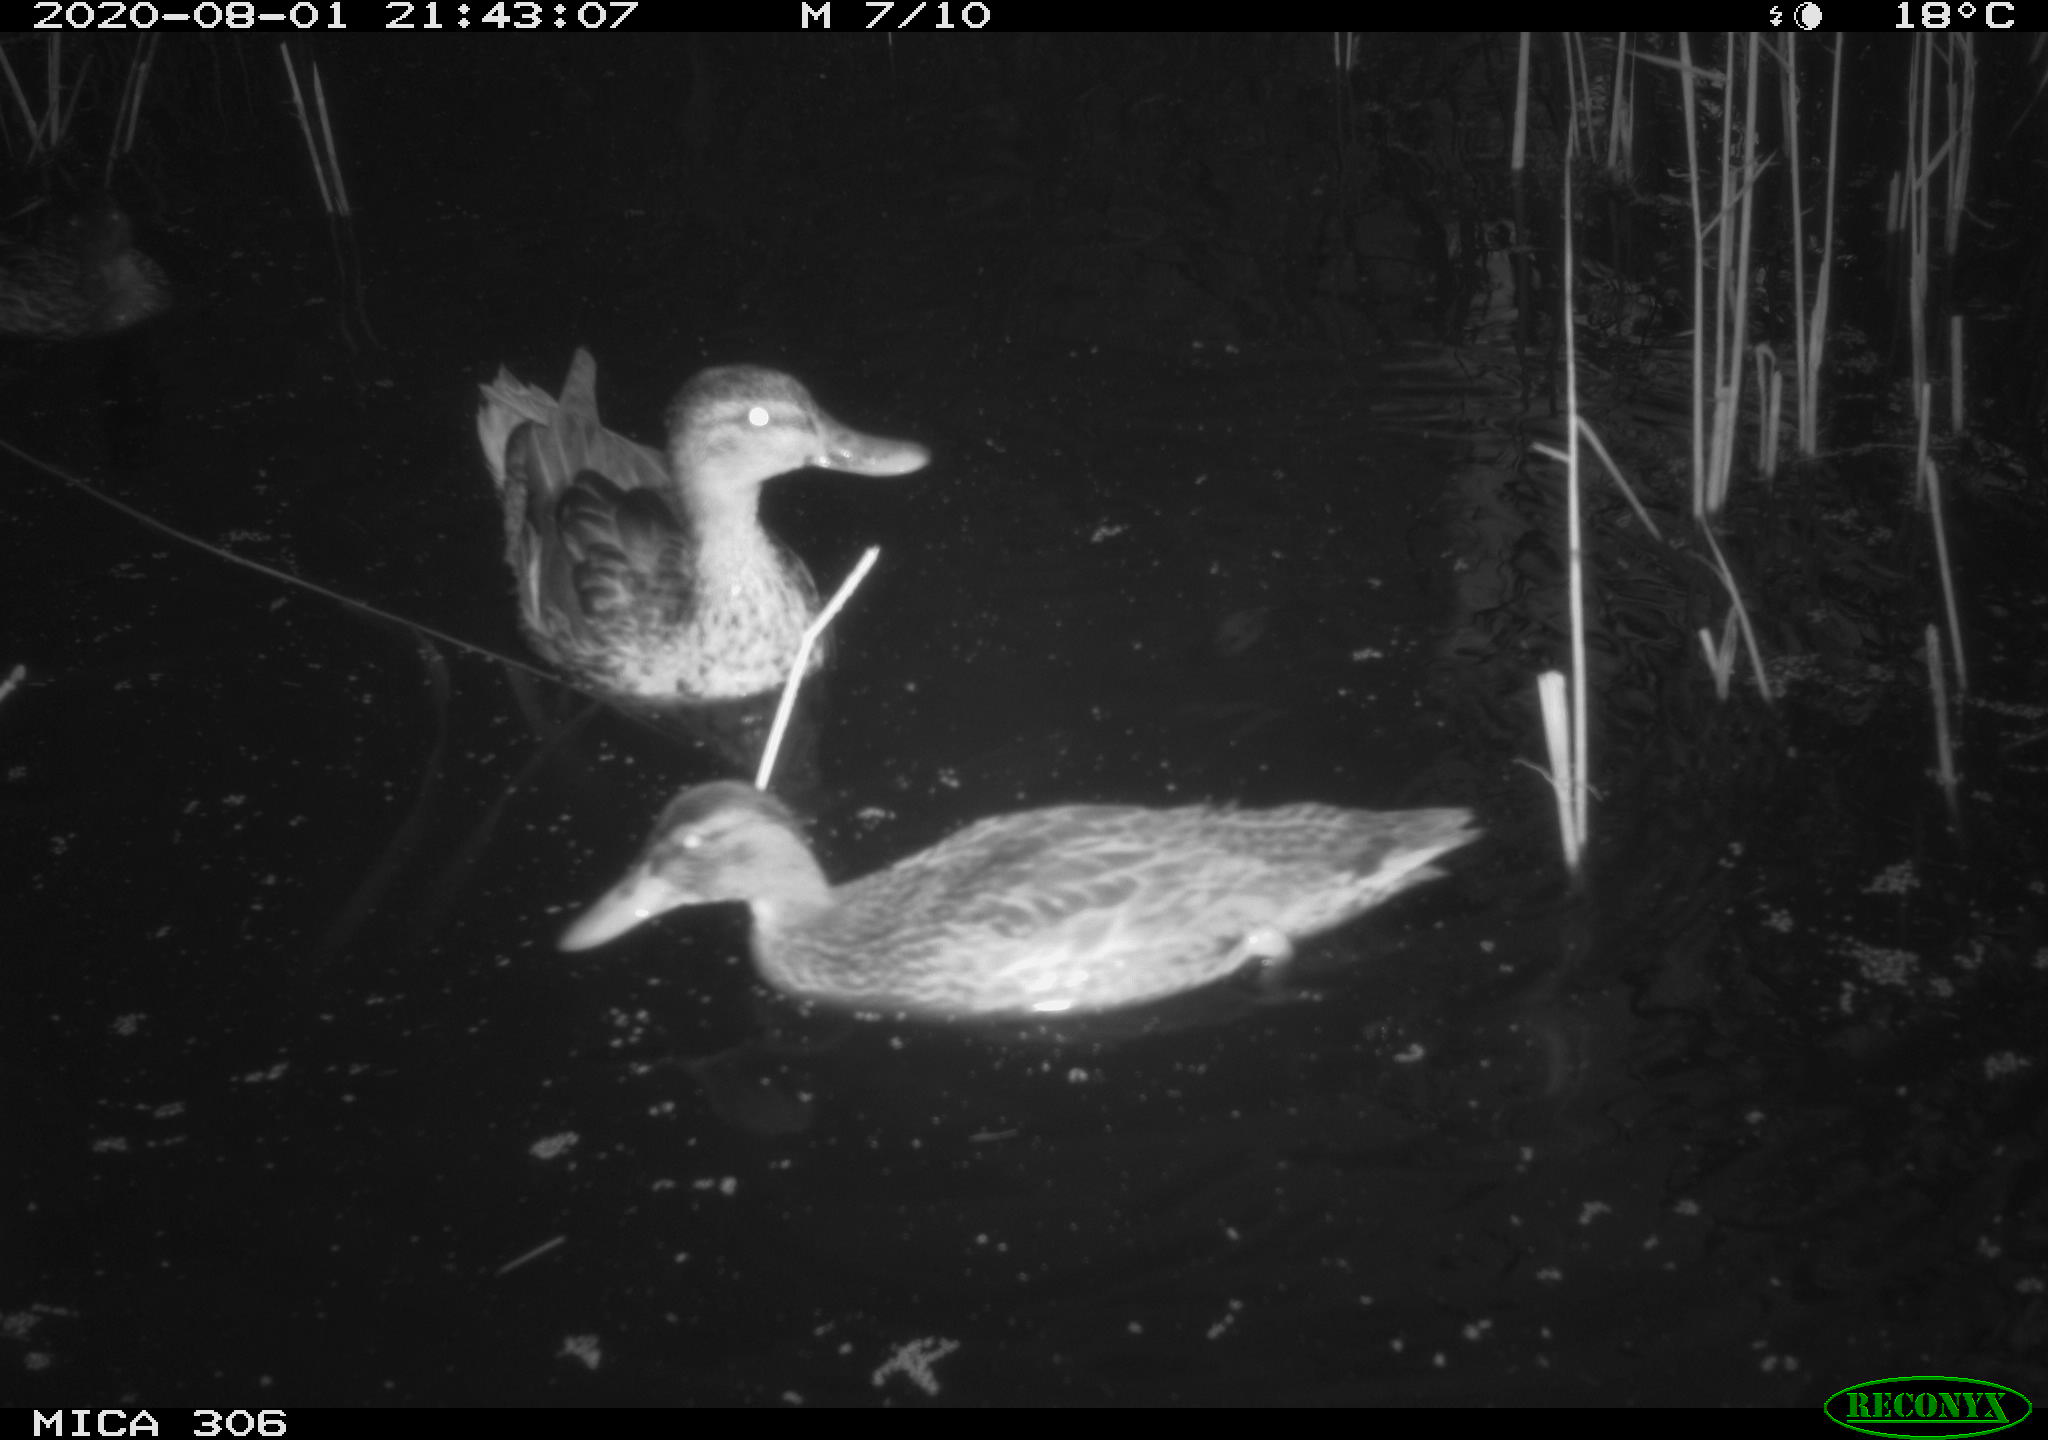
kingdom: Animalia
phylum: Chordata
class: Aves
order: Anseriformes
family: Anatidae
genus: Anas
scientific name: Anas platyrhynchos
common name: Mallard
